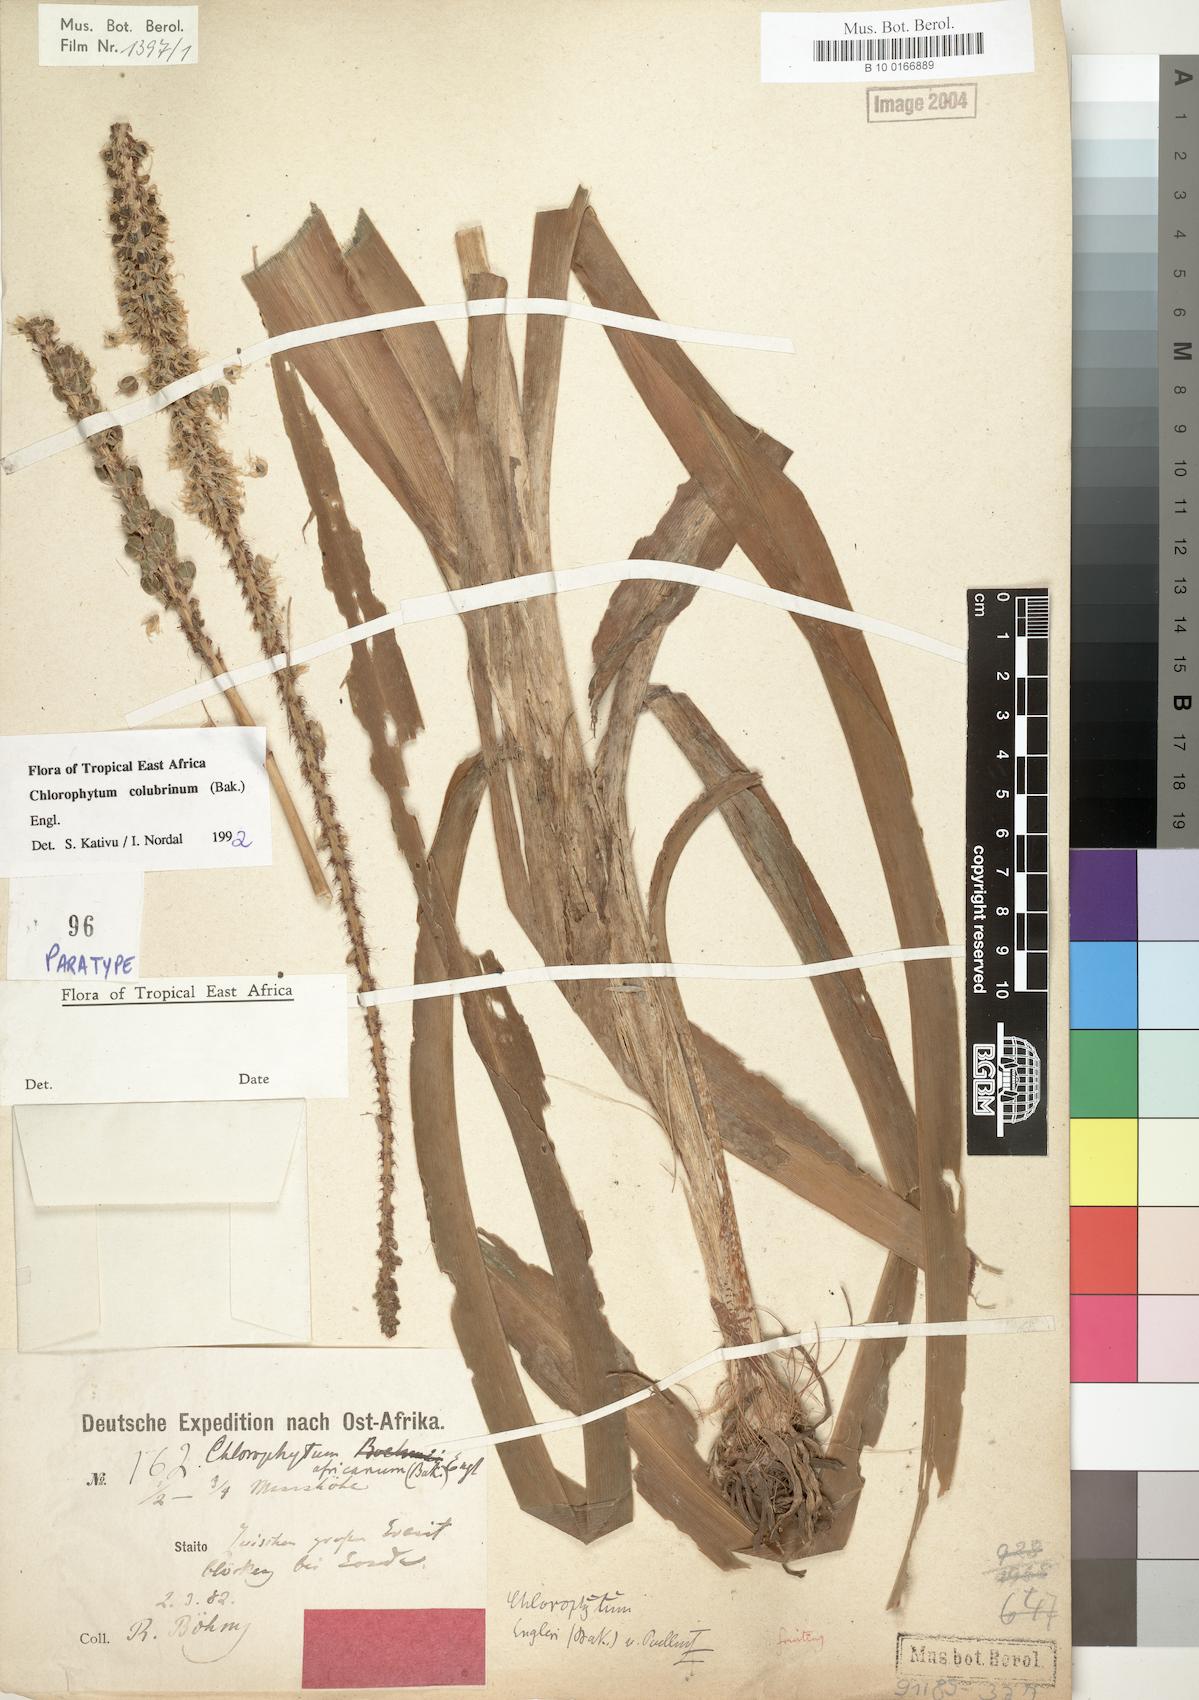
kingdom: Plantae
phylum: Tracheophyta
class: Liliopsida
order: Asparagales
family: Asparagaceae
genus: Chlorophytum
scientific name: Chlorophytum colubrinum
